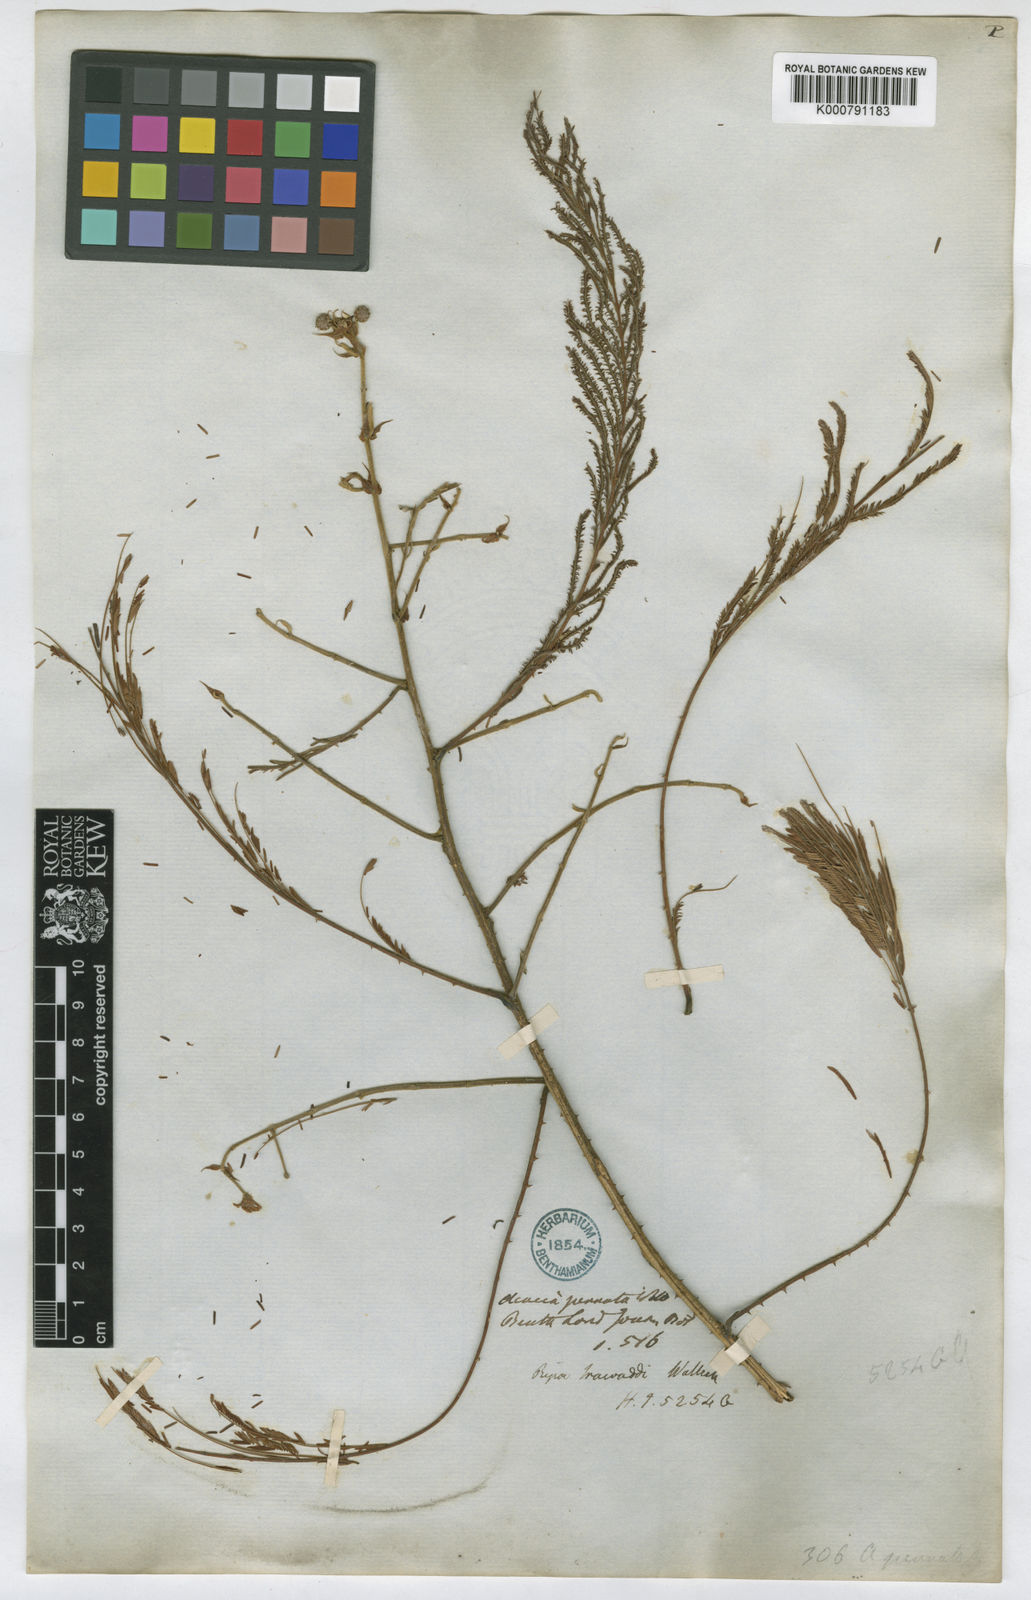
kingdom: Plantae
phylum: Tracheophyta
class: Magnoliopsida
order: Fabales
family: Fabaceae
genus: Senegalia
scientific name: Senegalia megaladena
